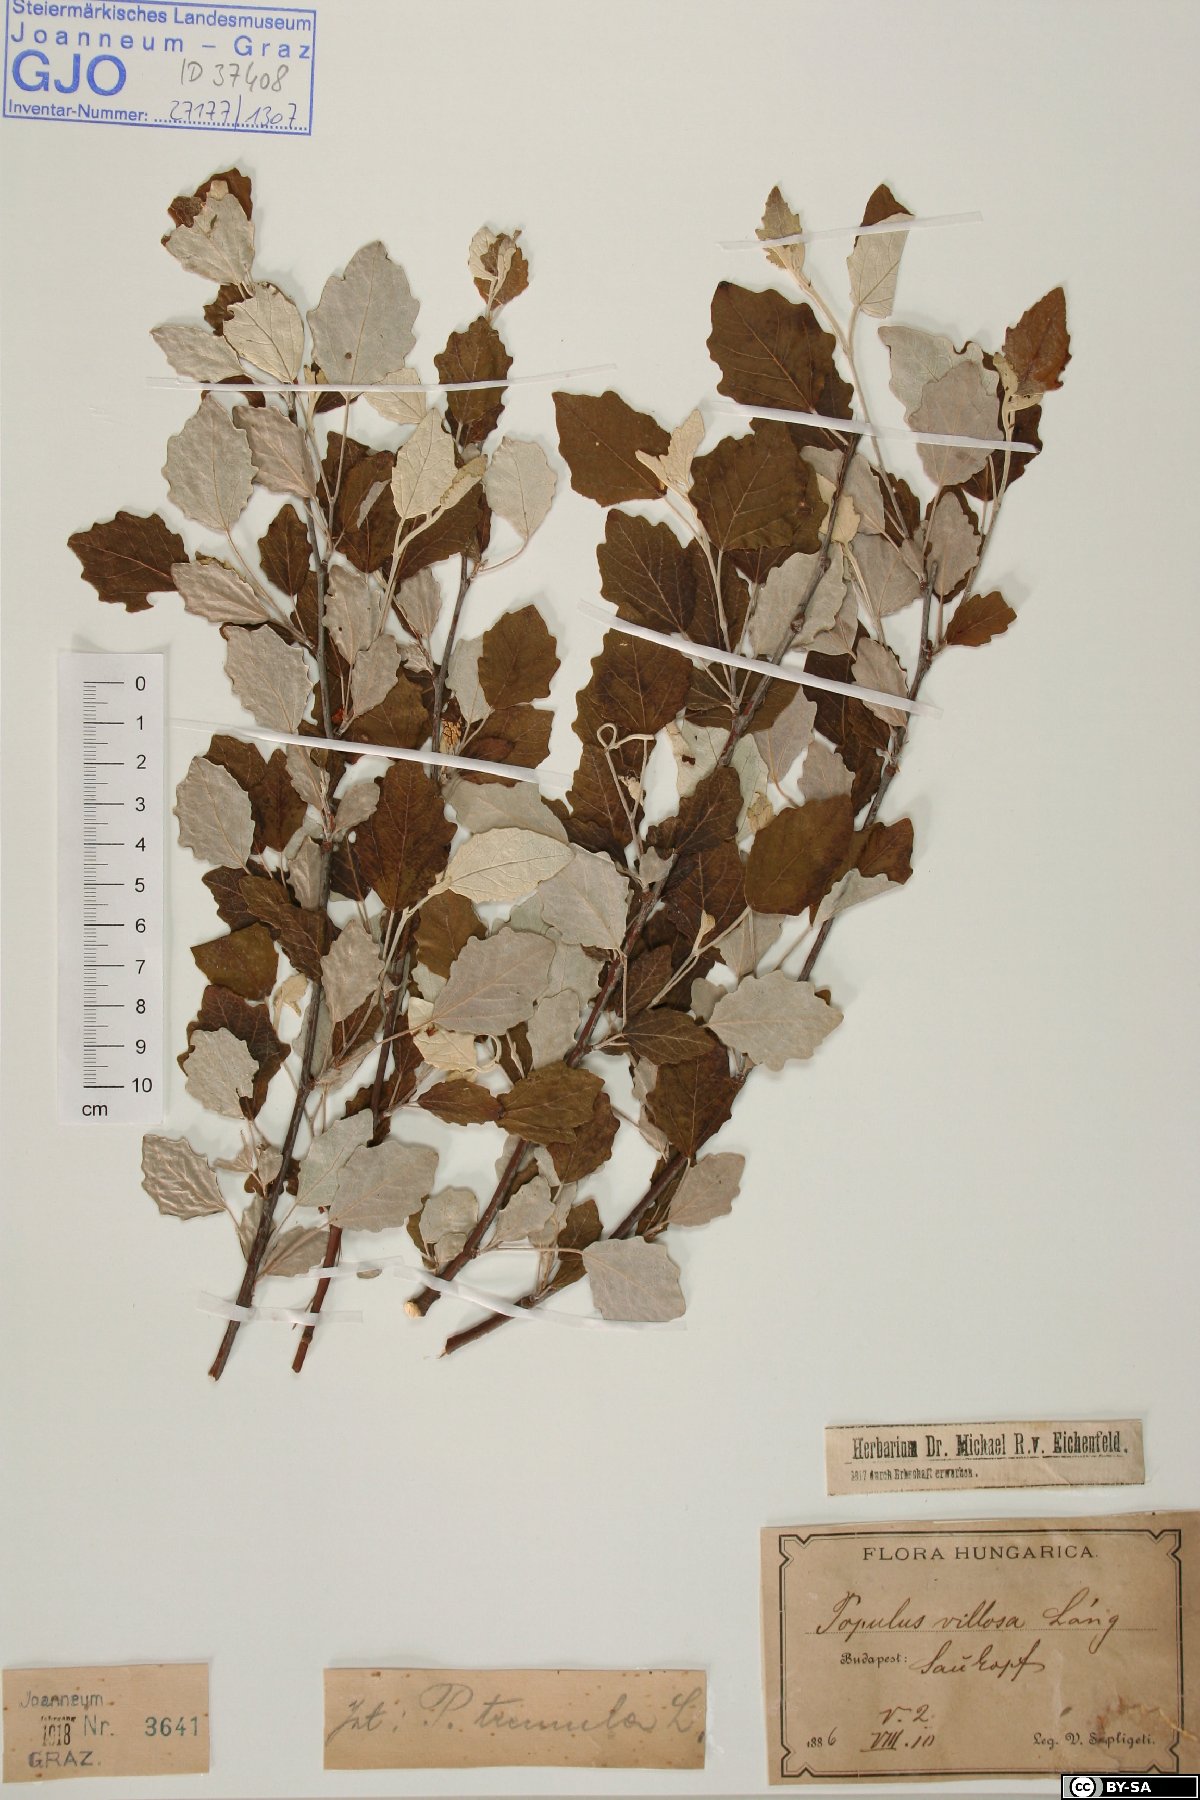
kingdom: Plantae
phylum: Tracheophyta
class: Magnoliopsida
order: Malpighiales
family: Salicaceae
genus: Populus
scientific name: Populus tremula
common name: European aspen
